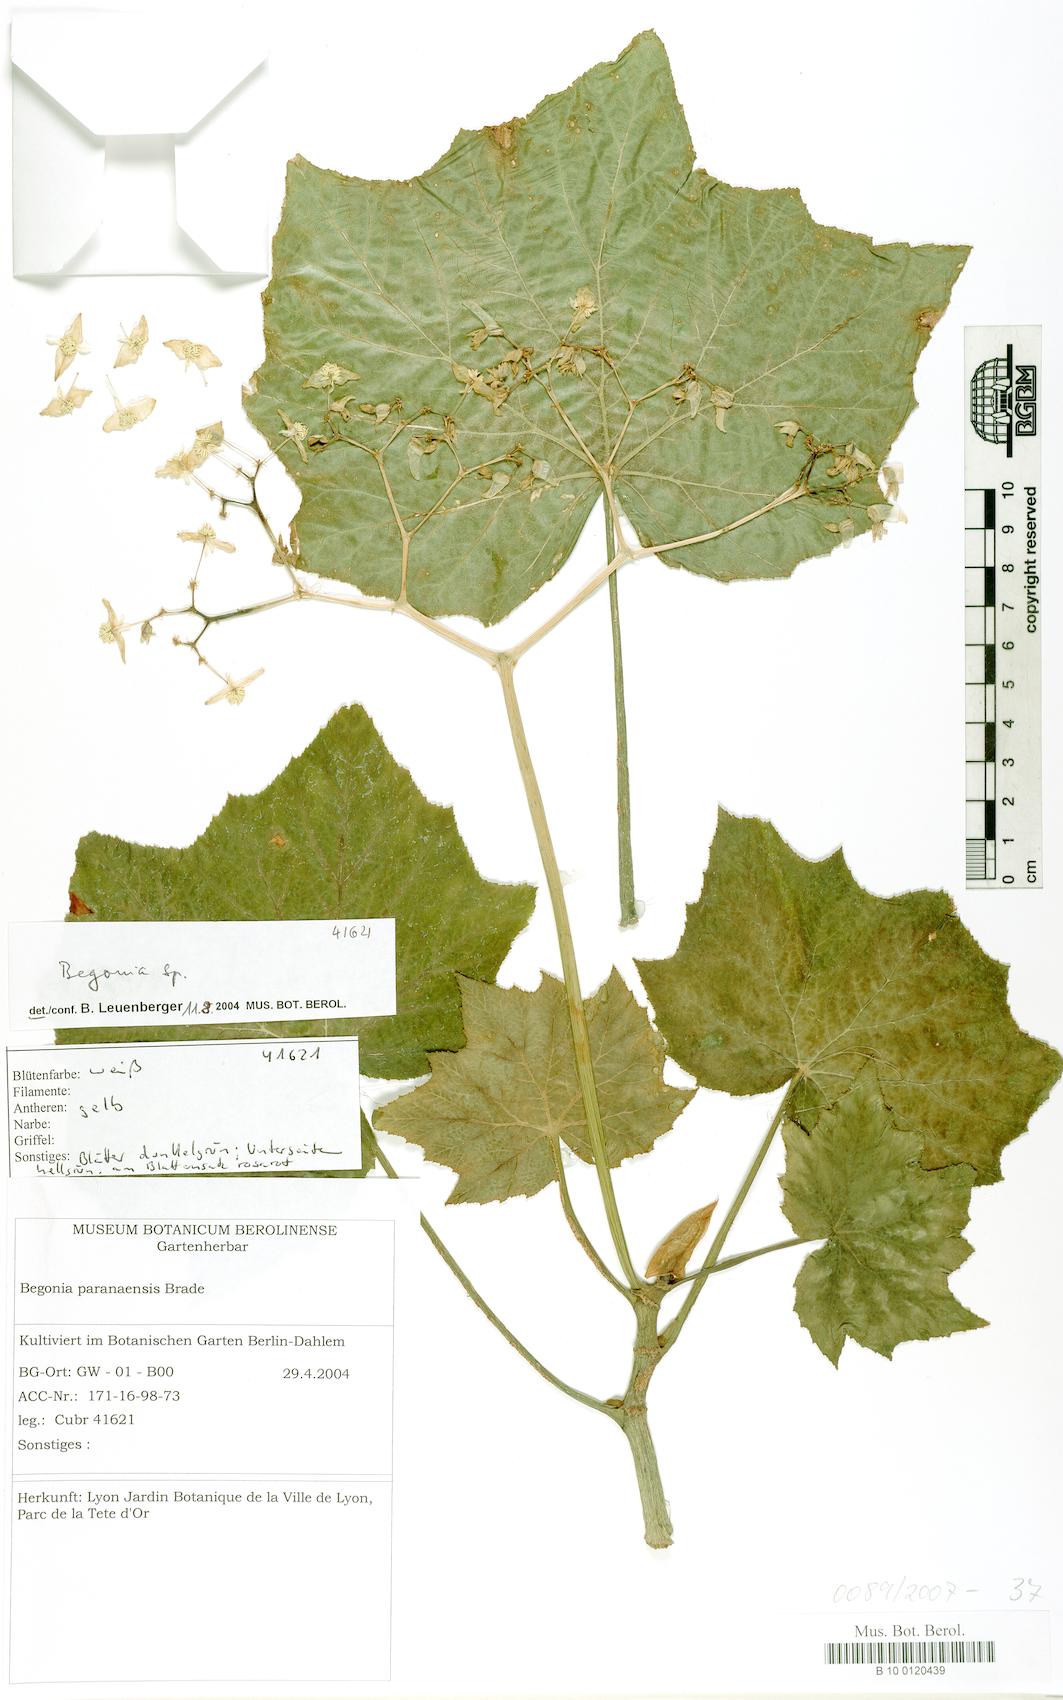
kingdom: Plantae
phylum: Tracheophyta
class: Magnoliopsida
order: Cucurbitales
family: Begoniaceae
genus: Begonia
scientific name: Begonia
